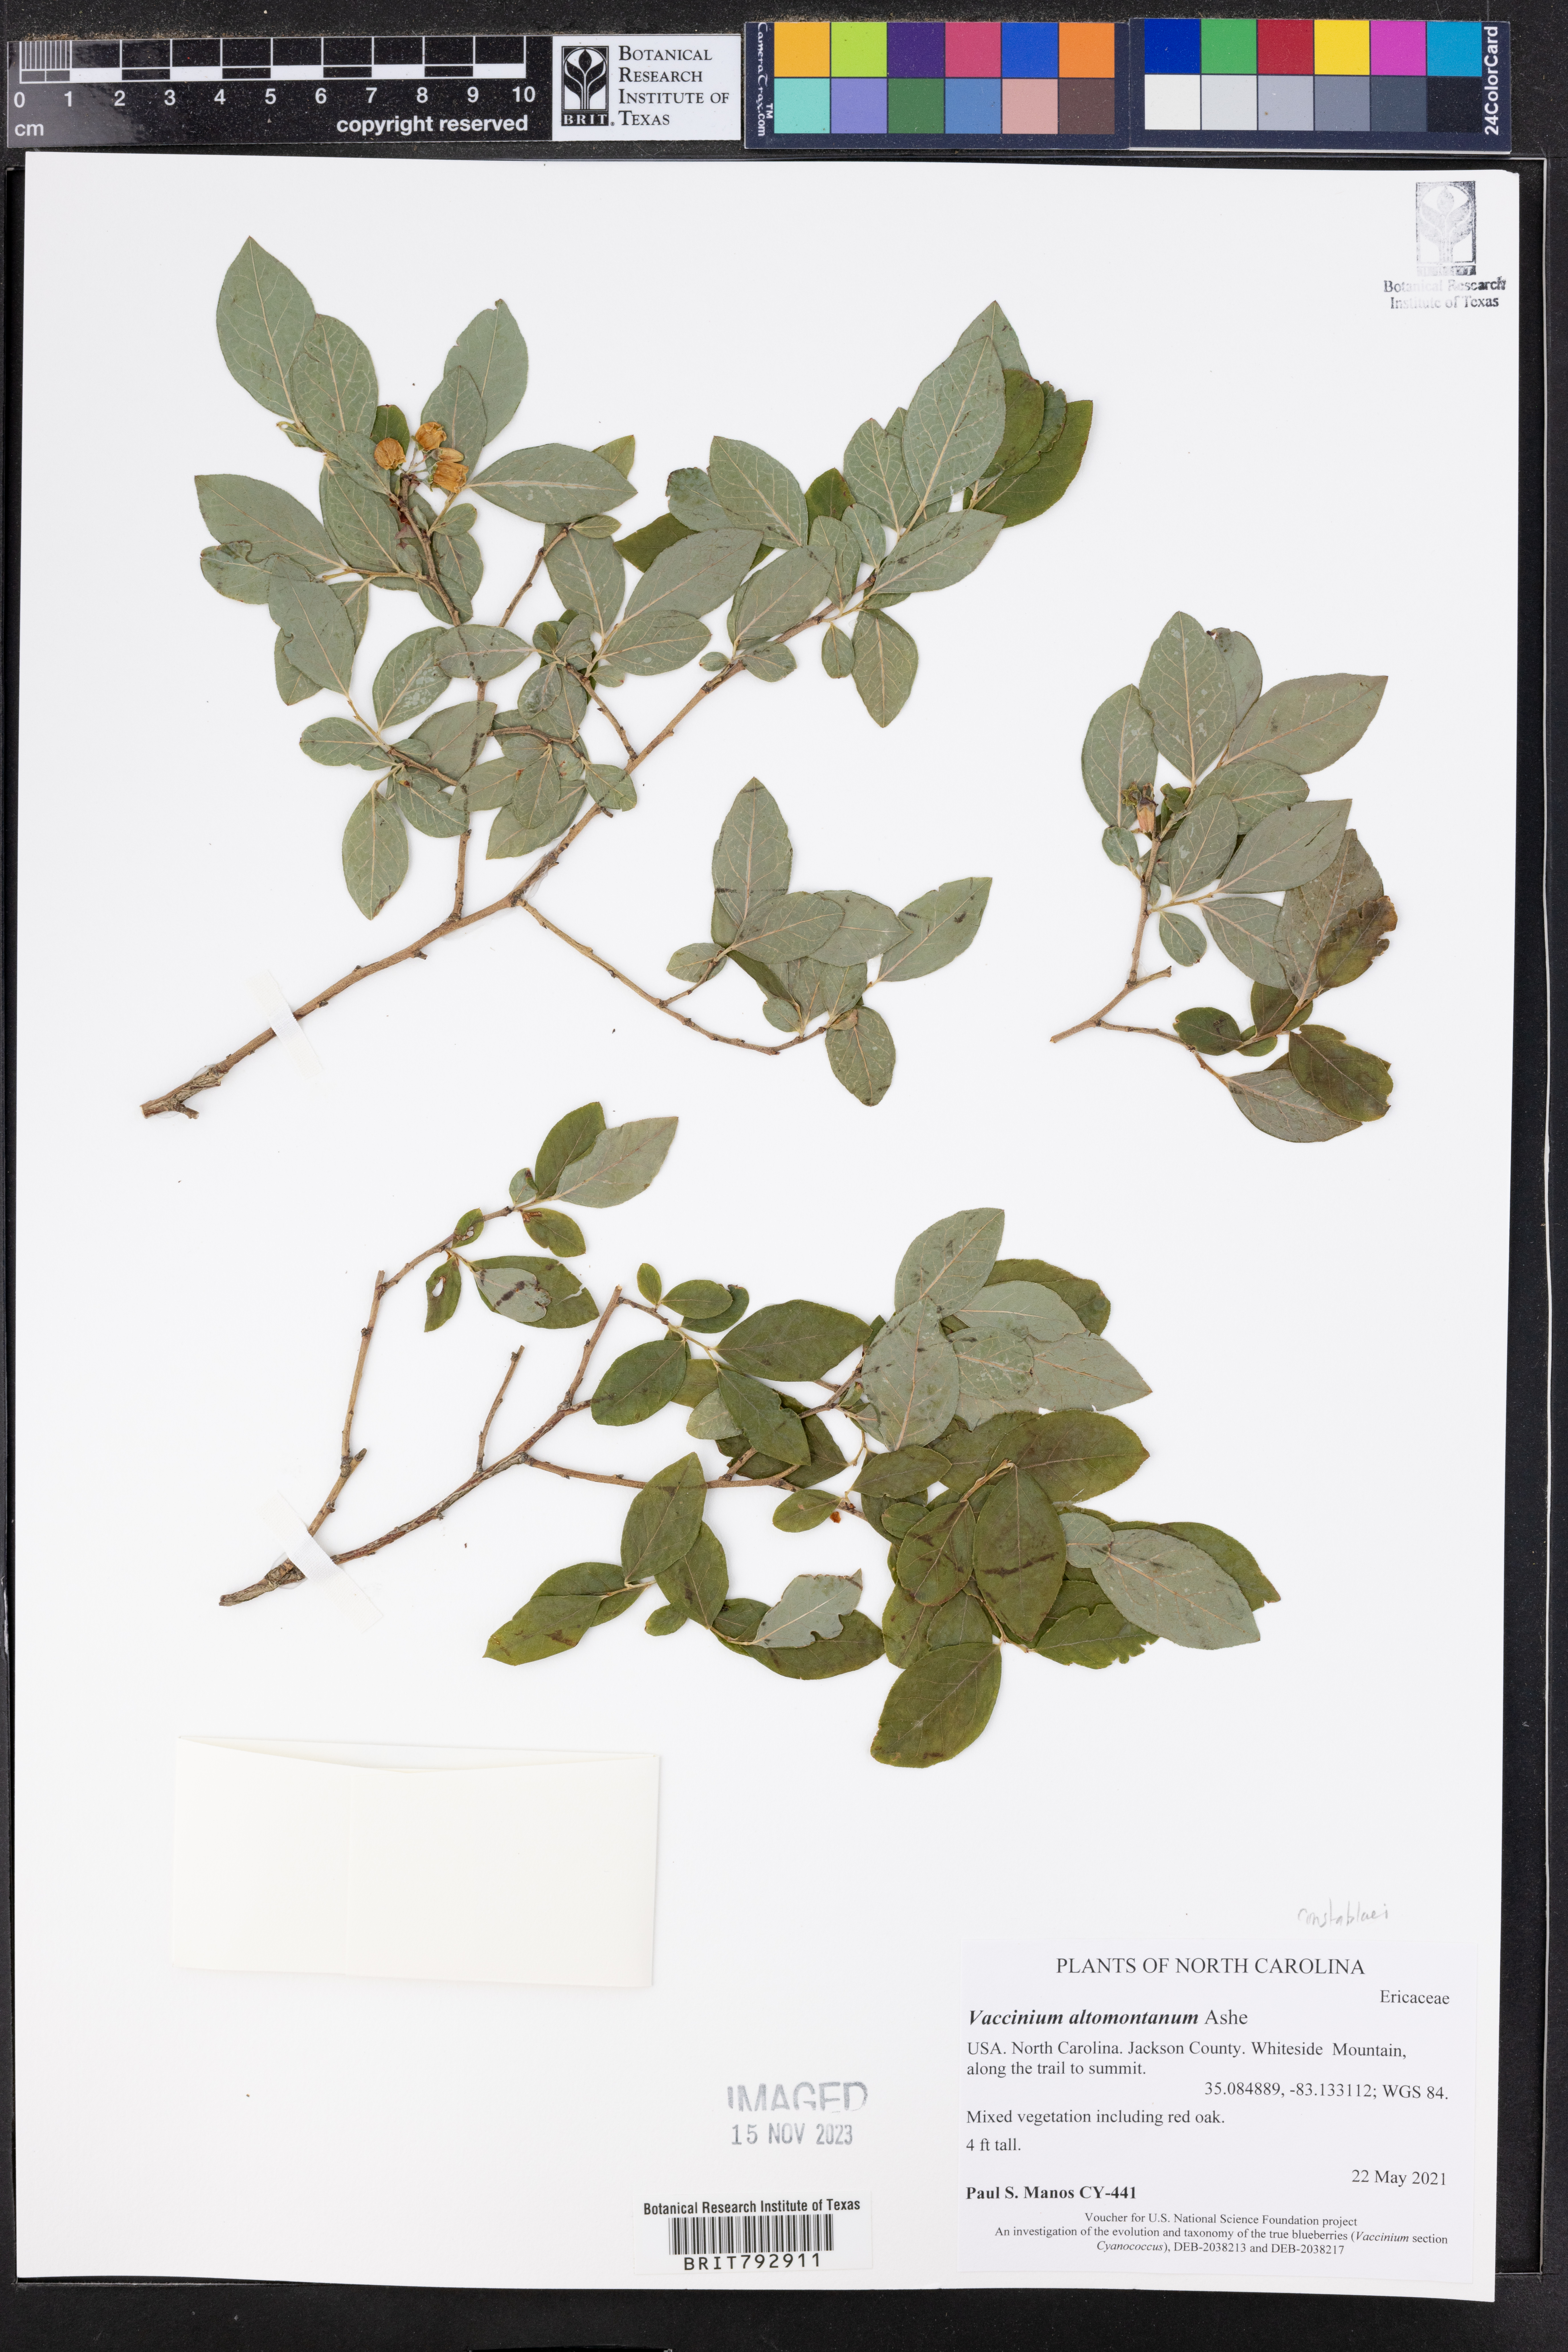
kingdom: Plantae
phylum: Tracheophyta
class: Magnoliopsida
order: Ericales
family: Ericaceae
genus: Vaccinium
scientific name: Vaccinium pallidum
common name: Blue ridge blueberry
